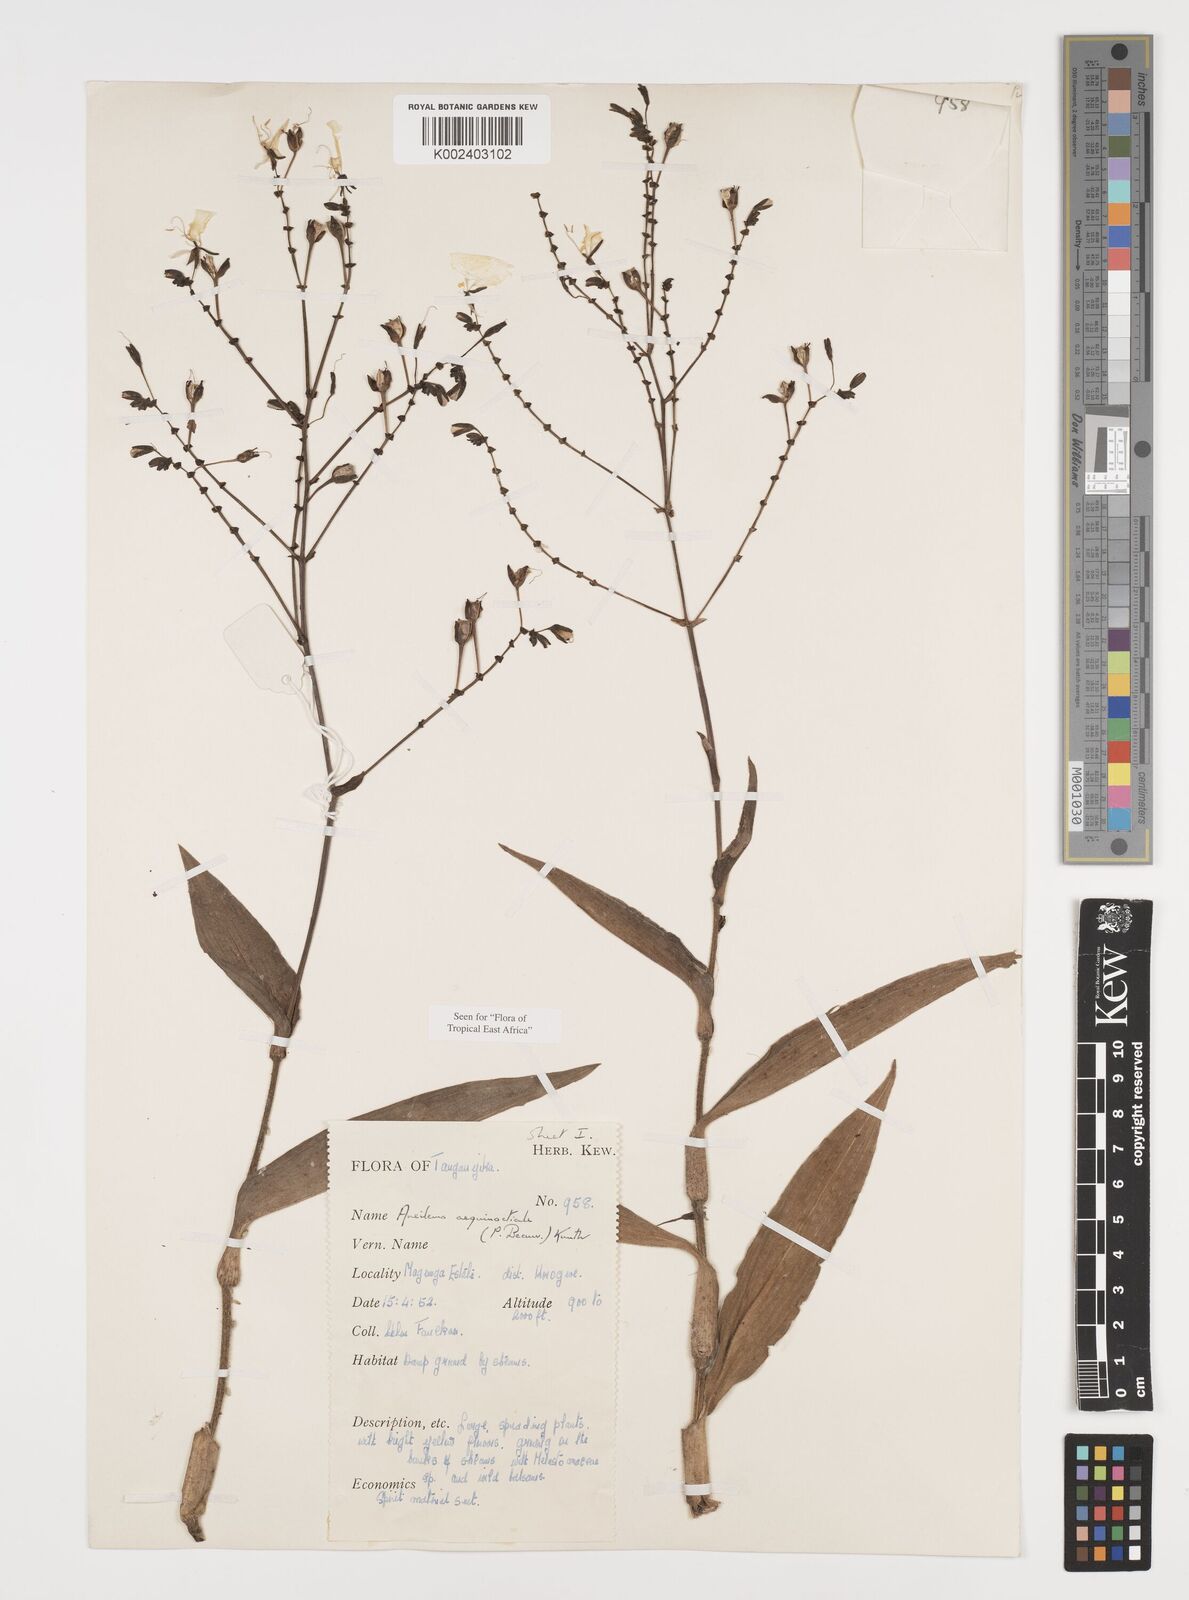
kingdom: Plantae
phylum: Tracheophyta
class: Liliopsida
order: Commelinales
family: Commelinaceae
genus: Aneilema
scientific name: Aneilema aequinoctiale
